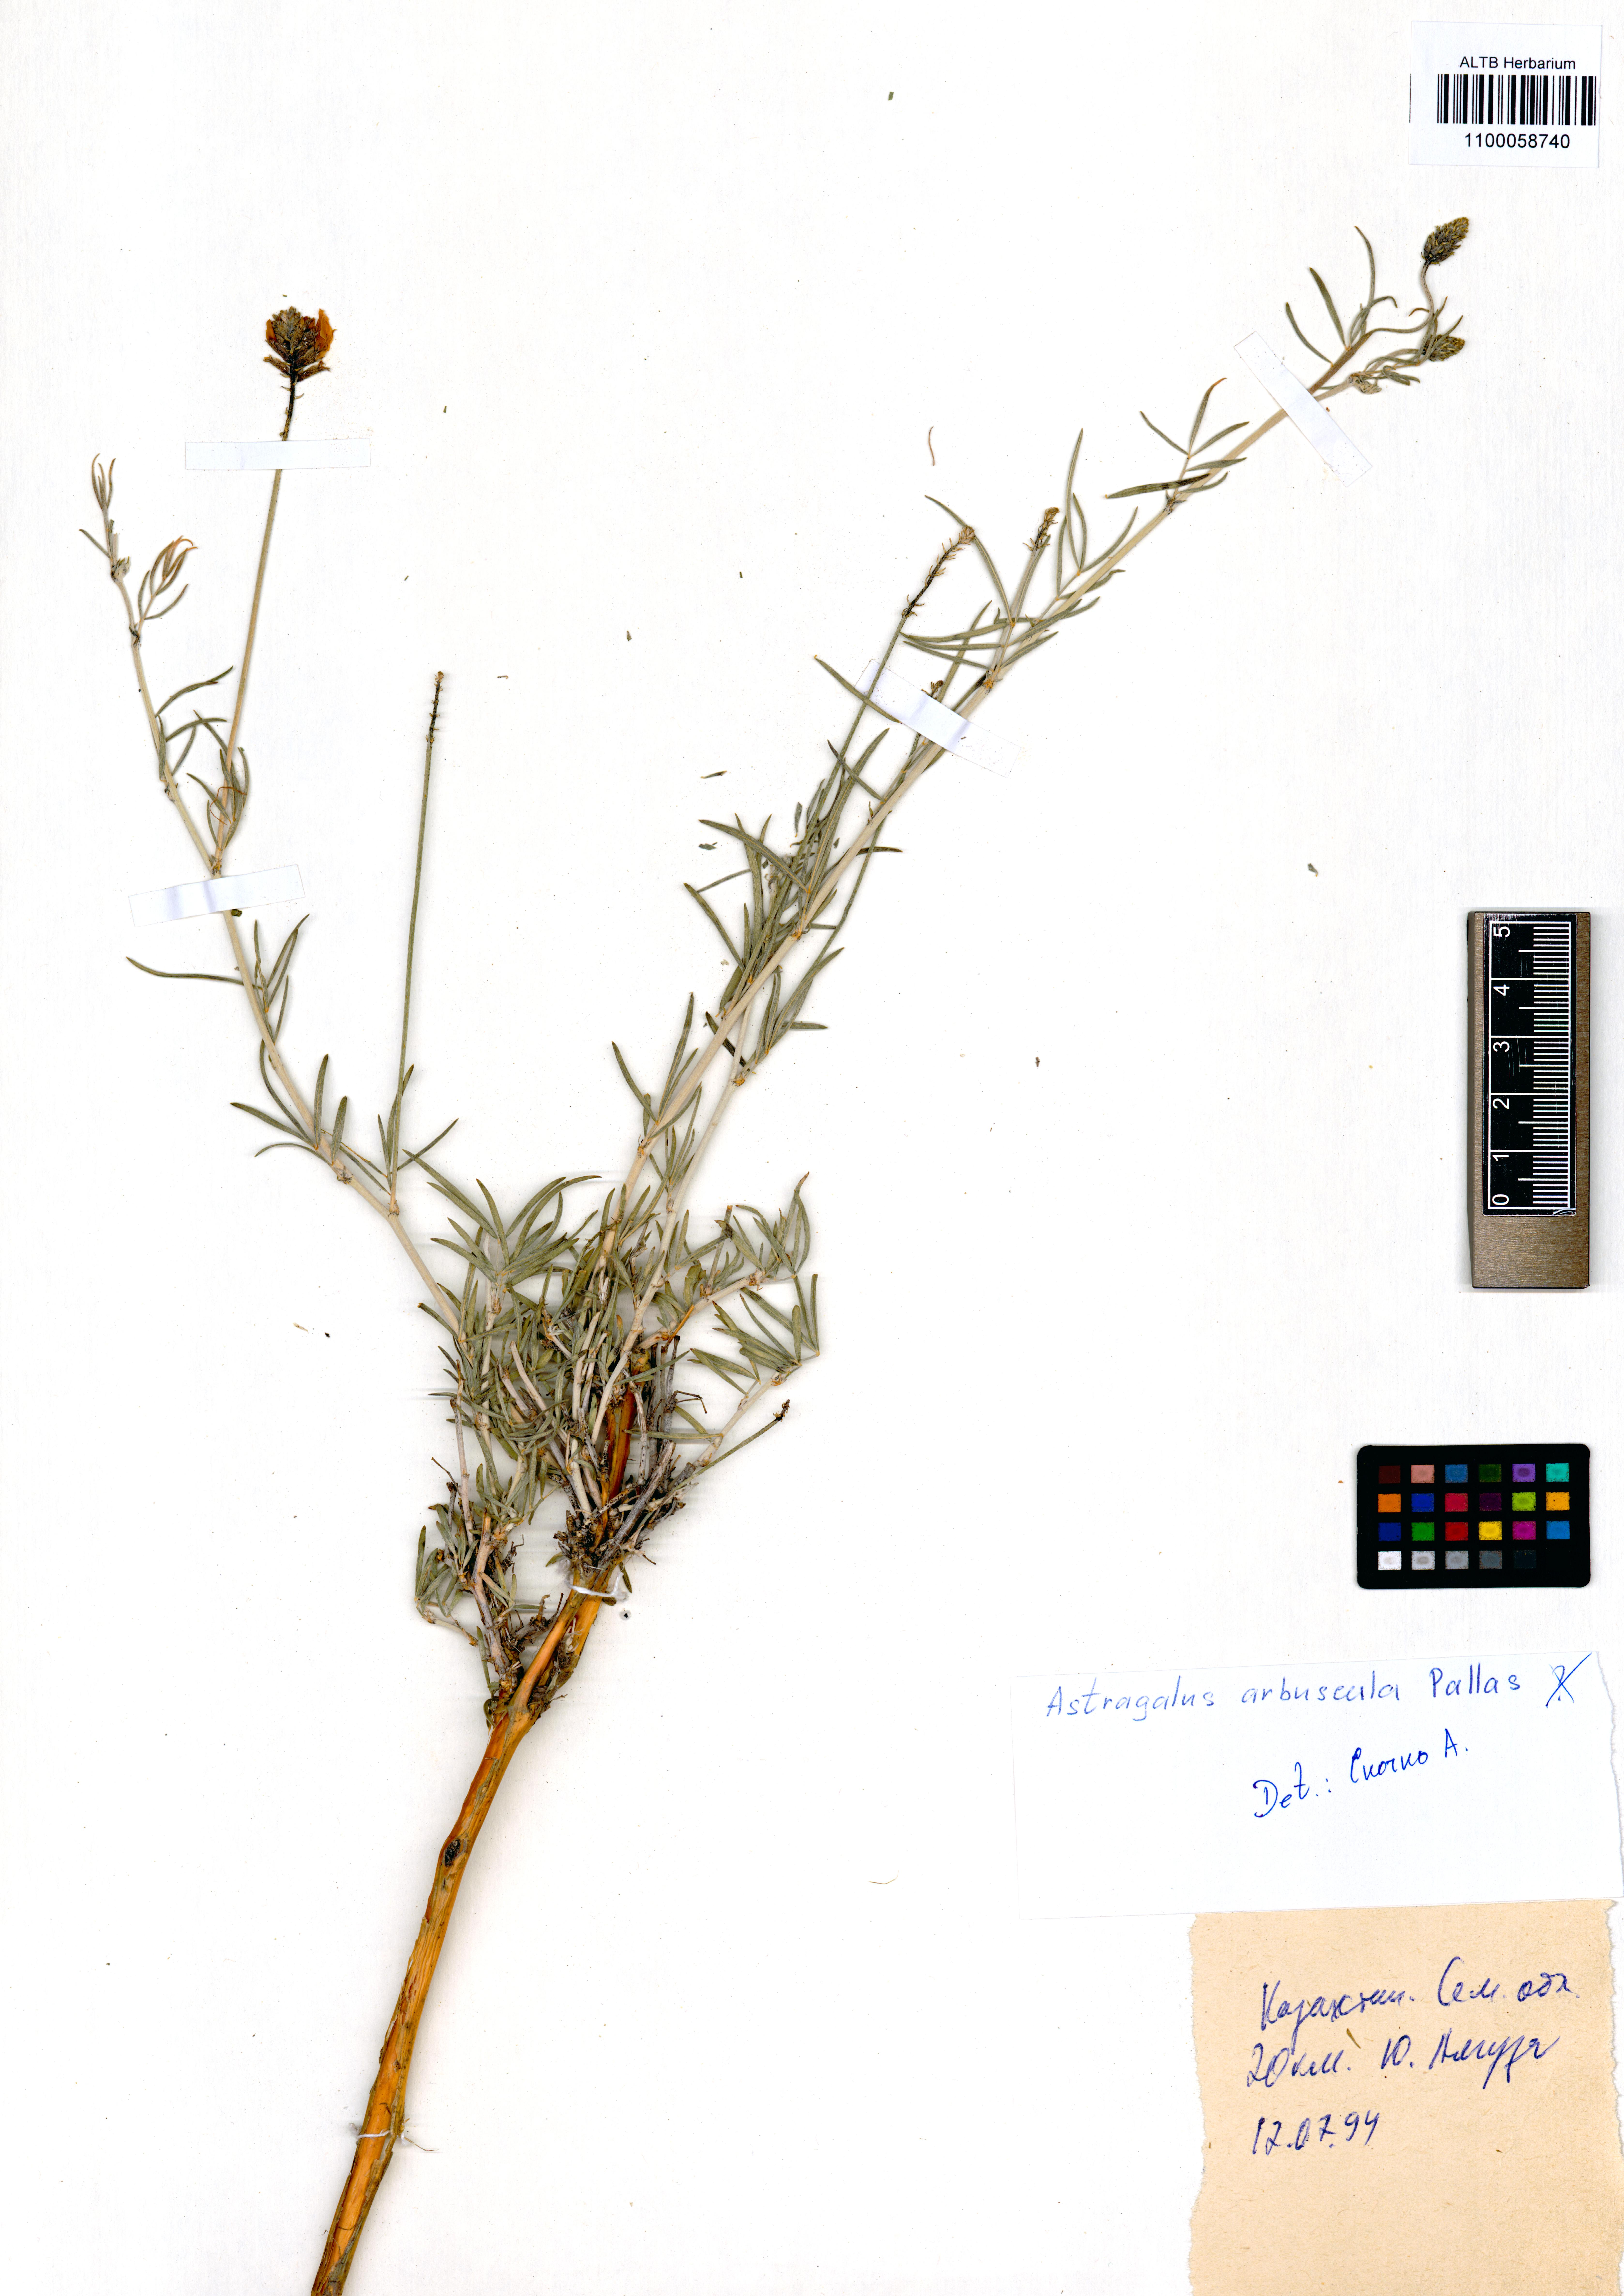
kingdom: Plantae
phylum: Tracheophyta
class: Magnoliopsida
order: Fabales
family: Fabaceae
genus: Astragalus
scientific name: Astragalus arbuscula
